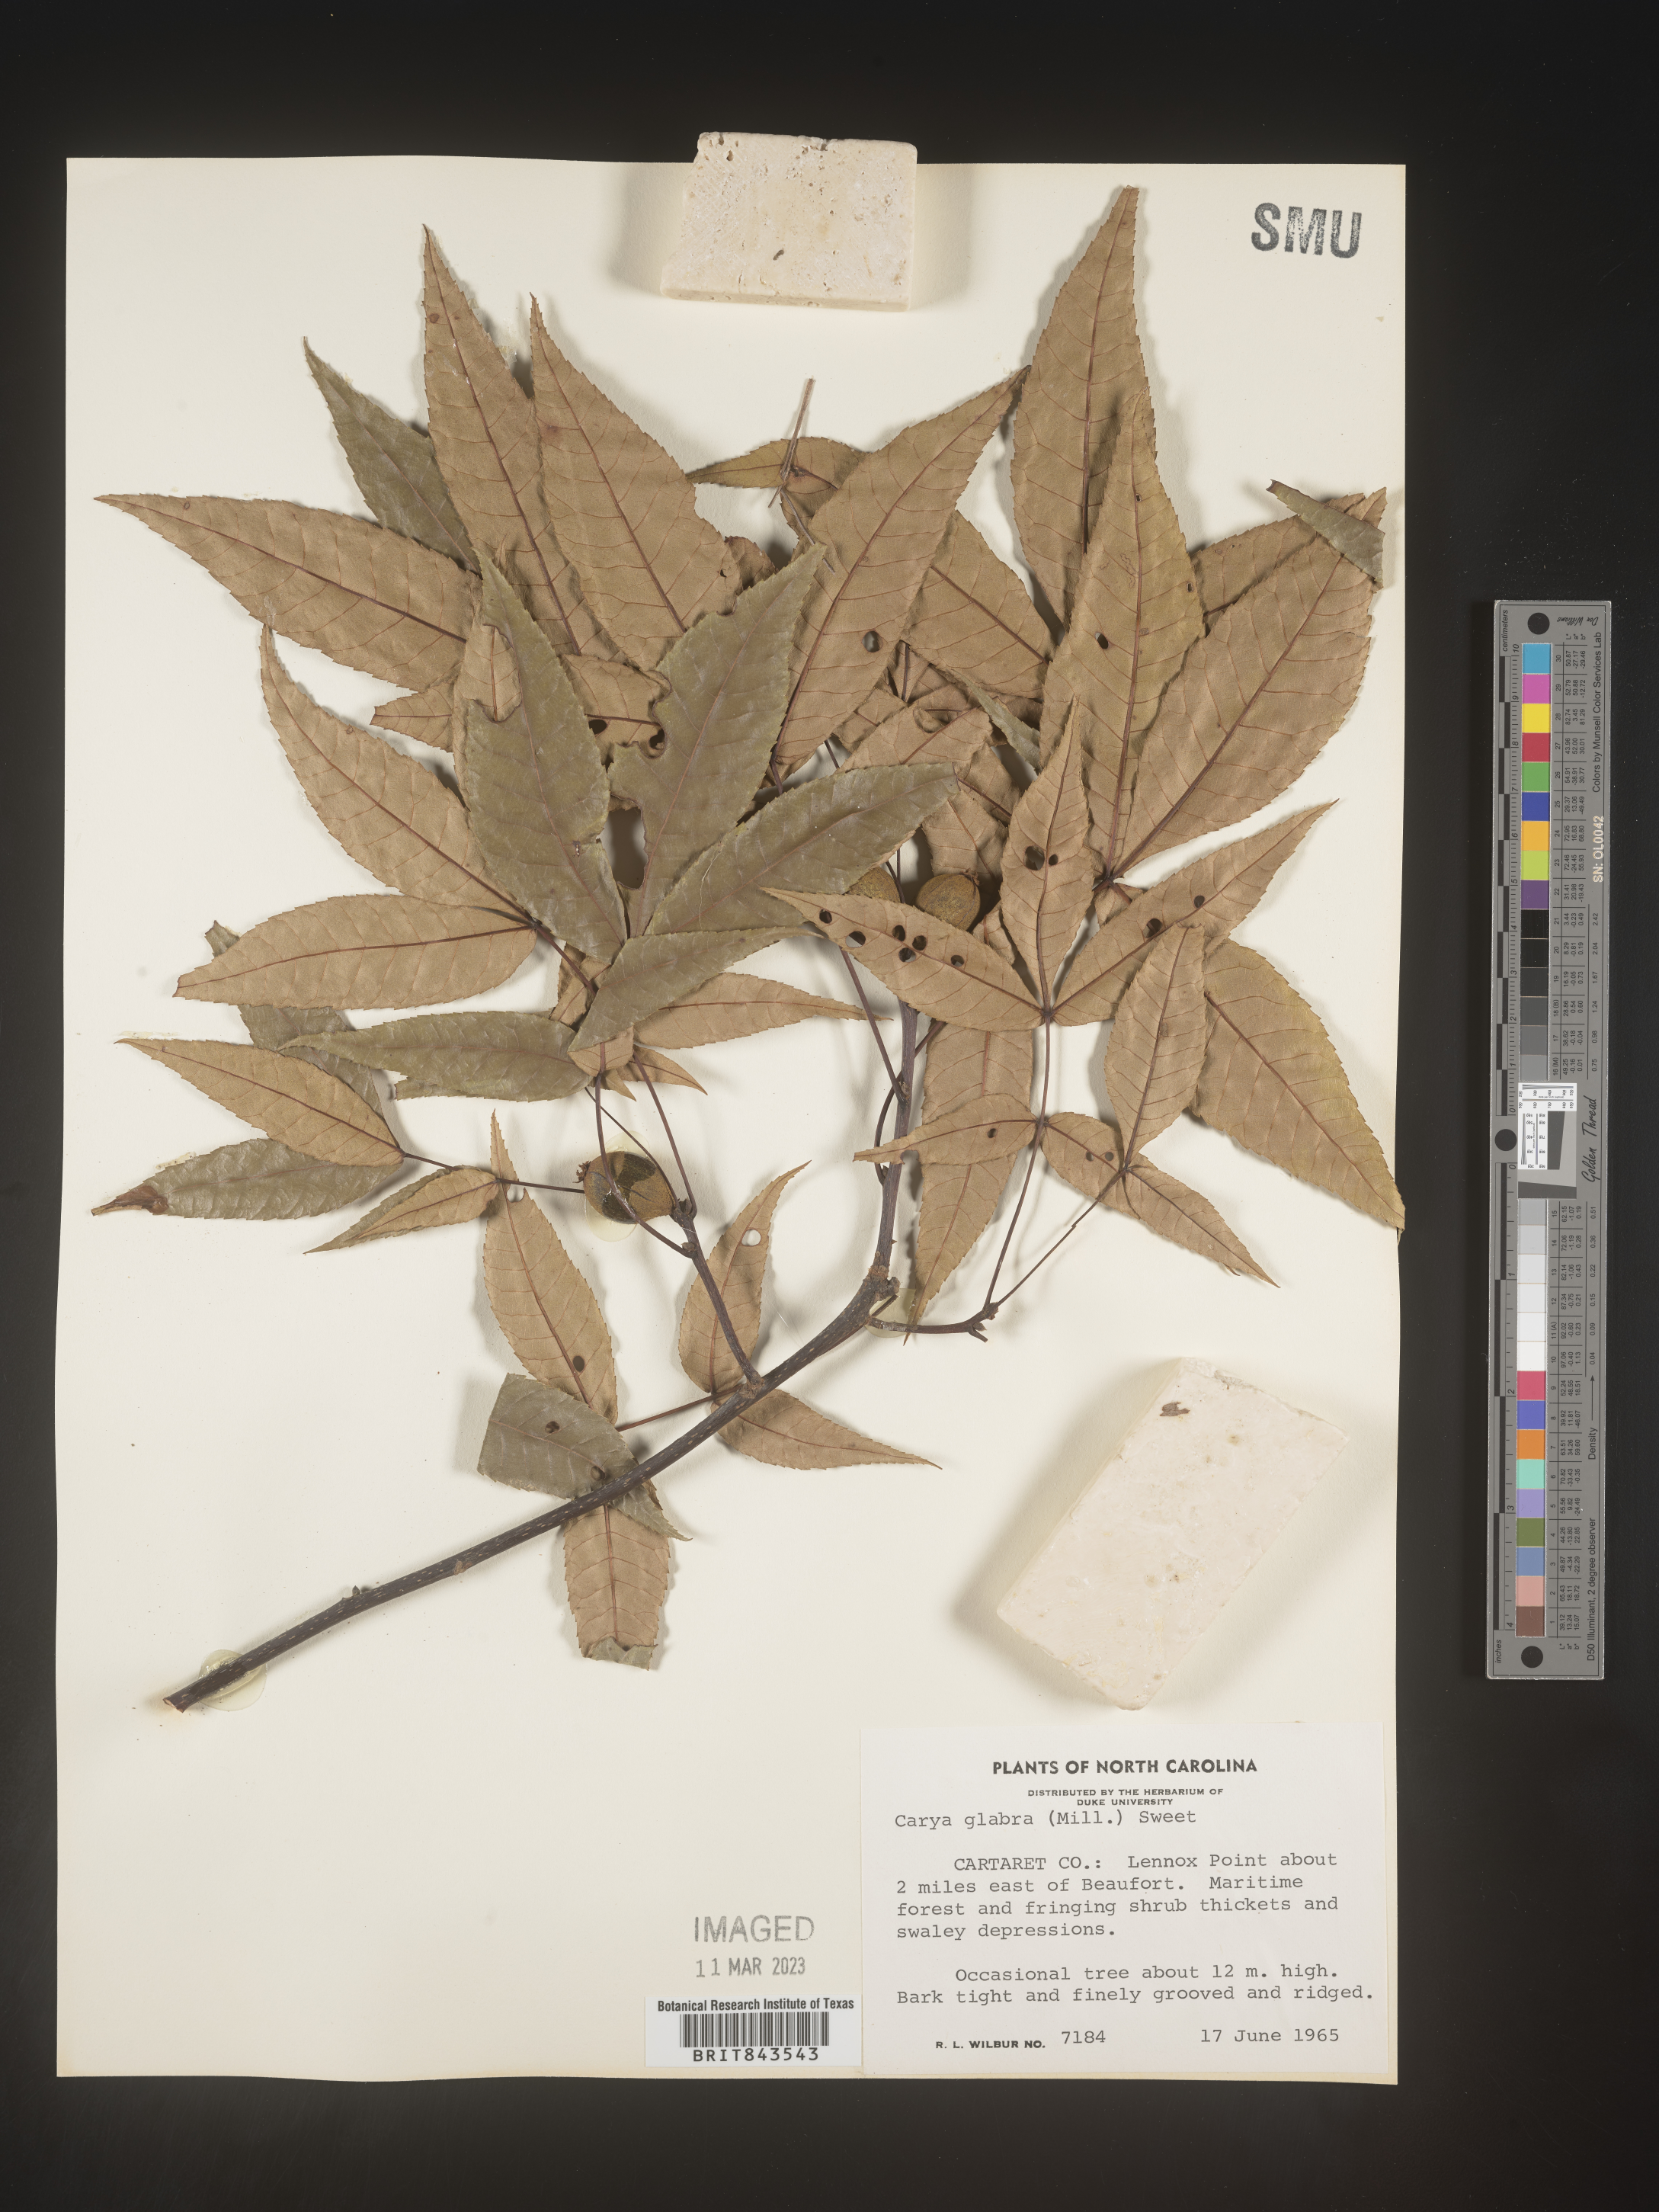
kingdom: Plantae
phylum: Tracheophyta
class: Magnoliopsida
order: Fagales
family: Juglandaceae
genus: Carya
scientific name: Carya glabra
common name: Pignut hickory
